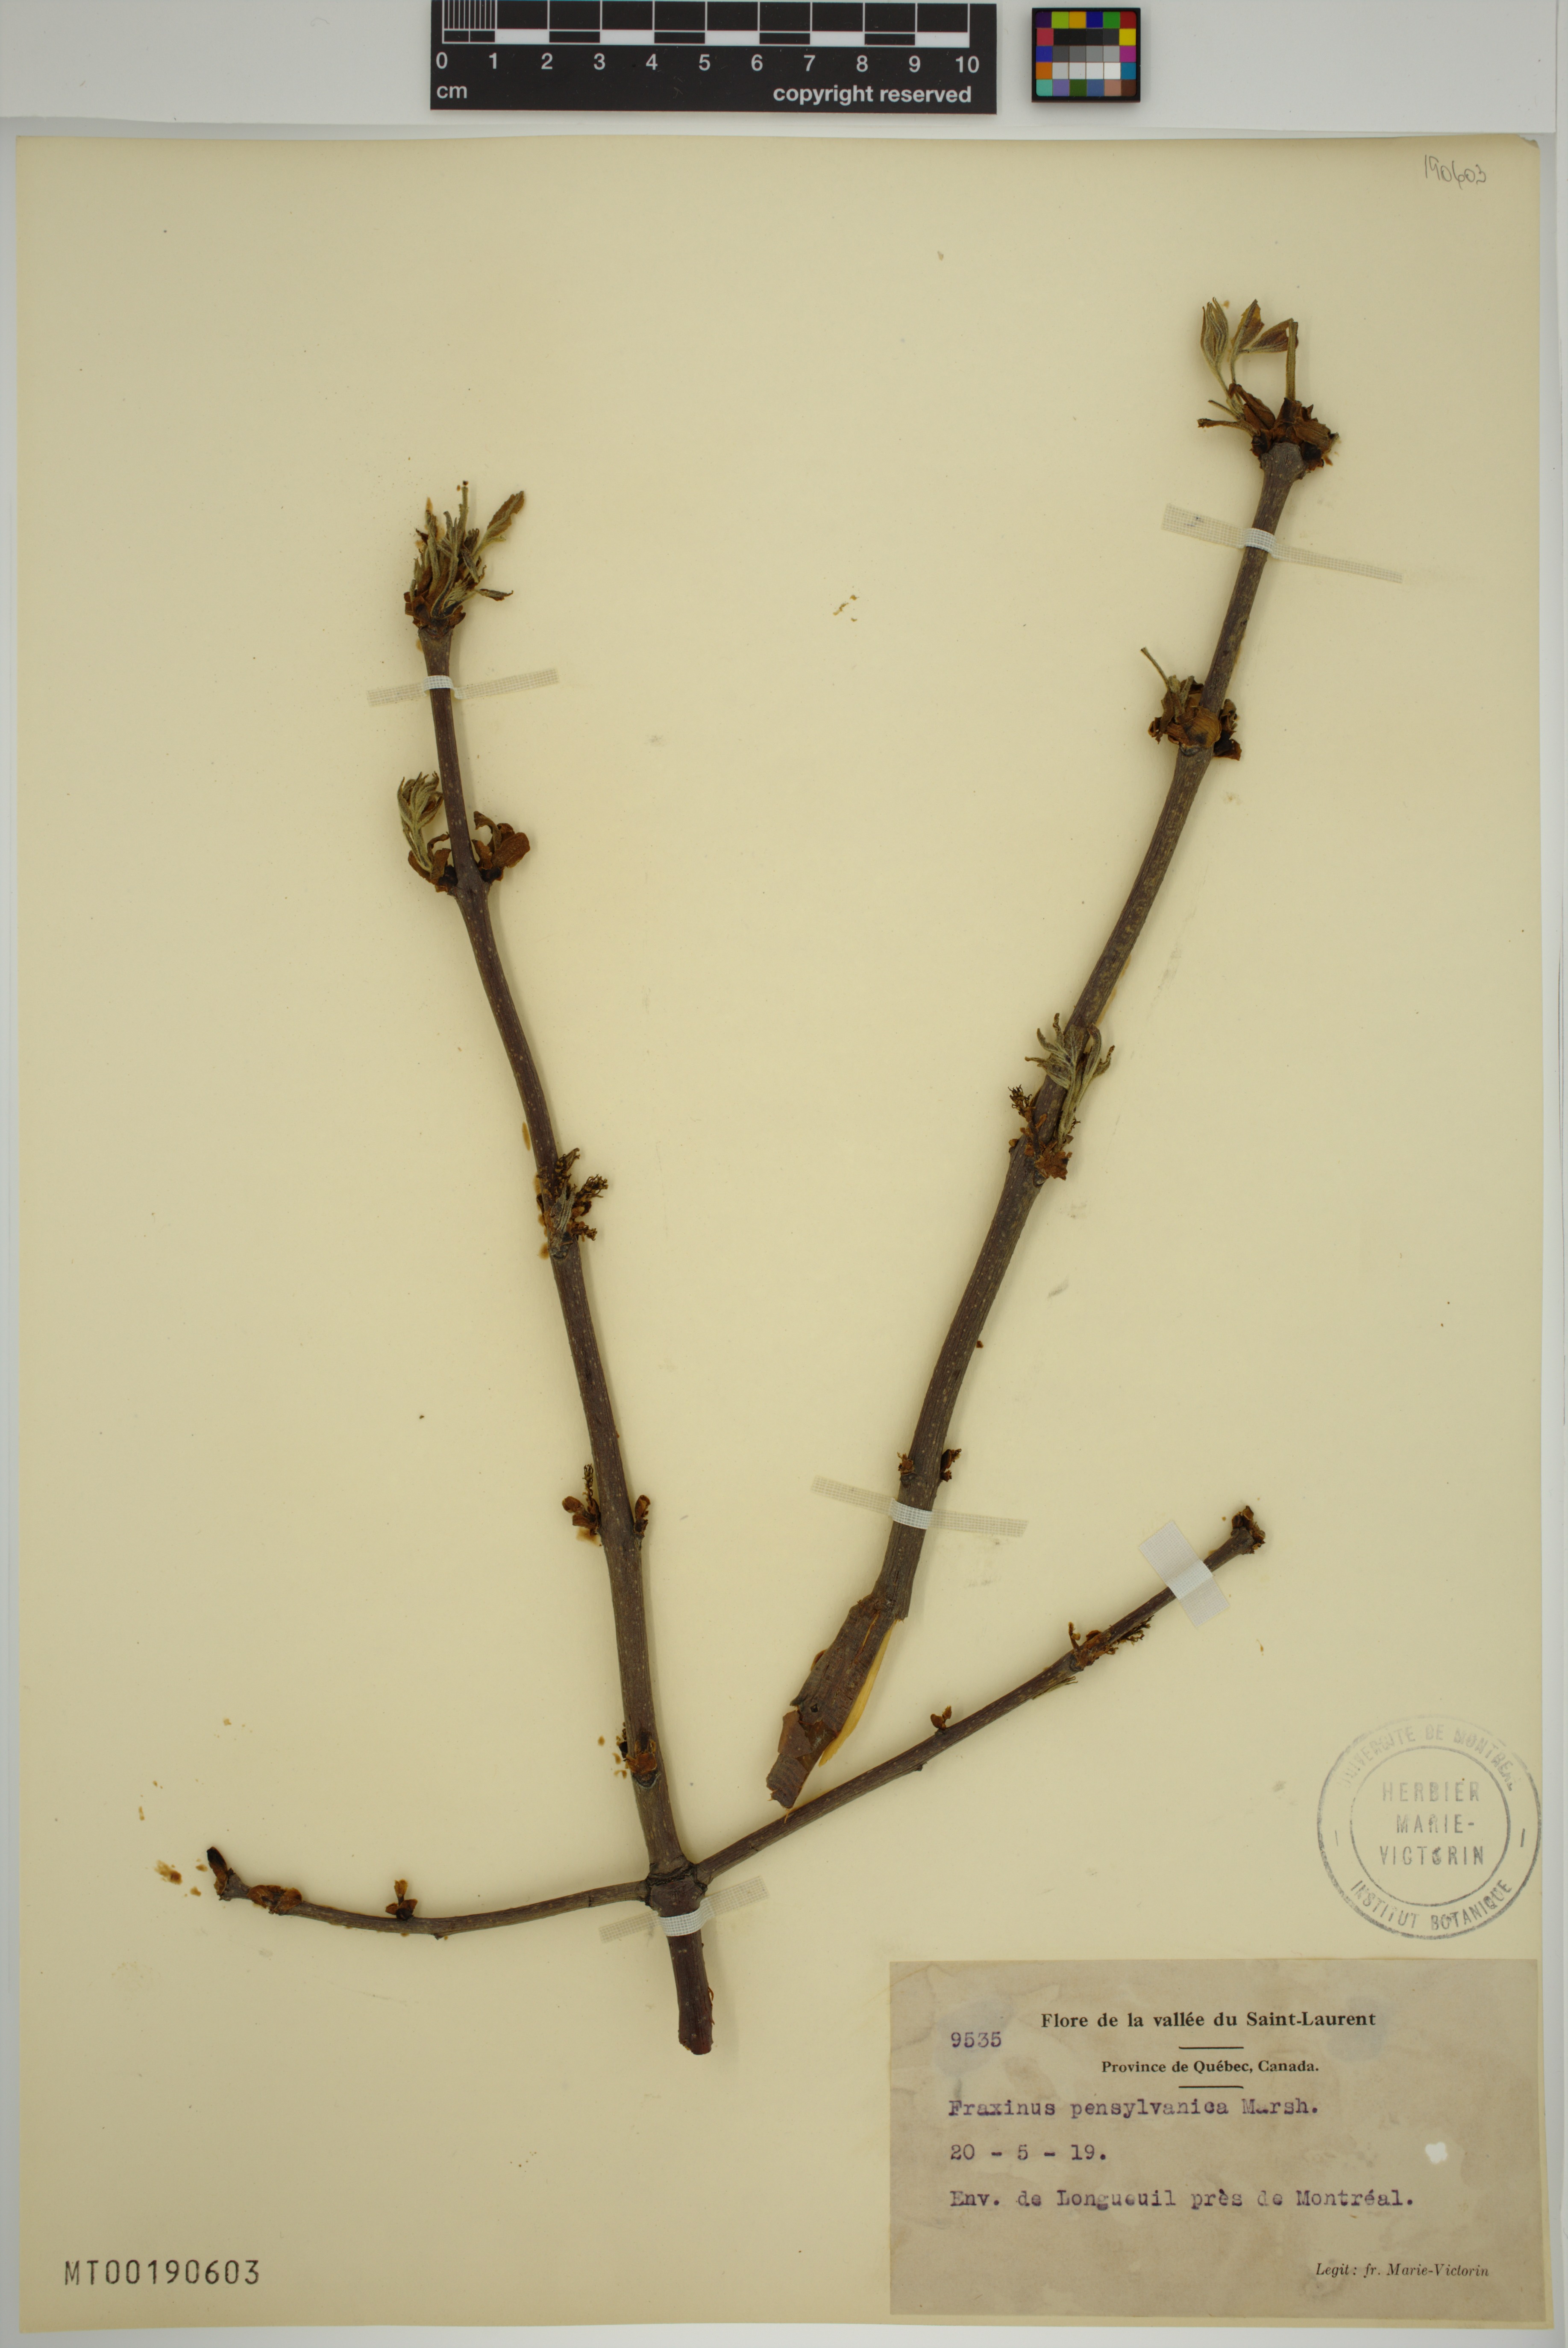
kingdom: Plantae
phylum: Tracheophyta
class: Magnoliopsida
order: Lamiales
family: Oleaceae
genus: Fraxinus
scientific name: Fraxinus pennsylvanica
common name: Green ash
